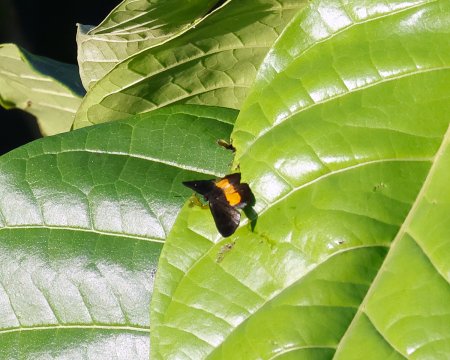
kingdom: Animalia
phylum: Arthropoda
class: Insecta
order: Lepidoptera
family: Riodinidae
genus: Pirascca
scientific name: Pirascca tyriotes
